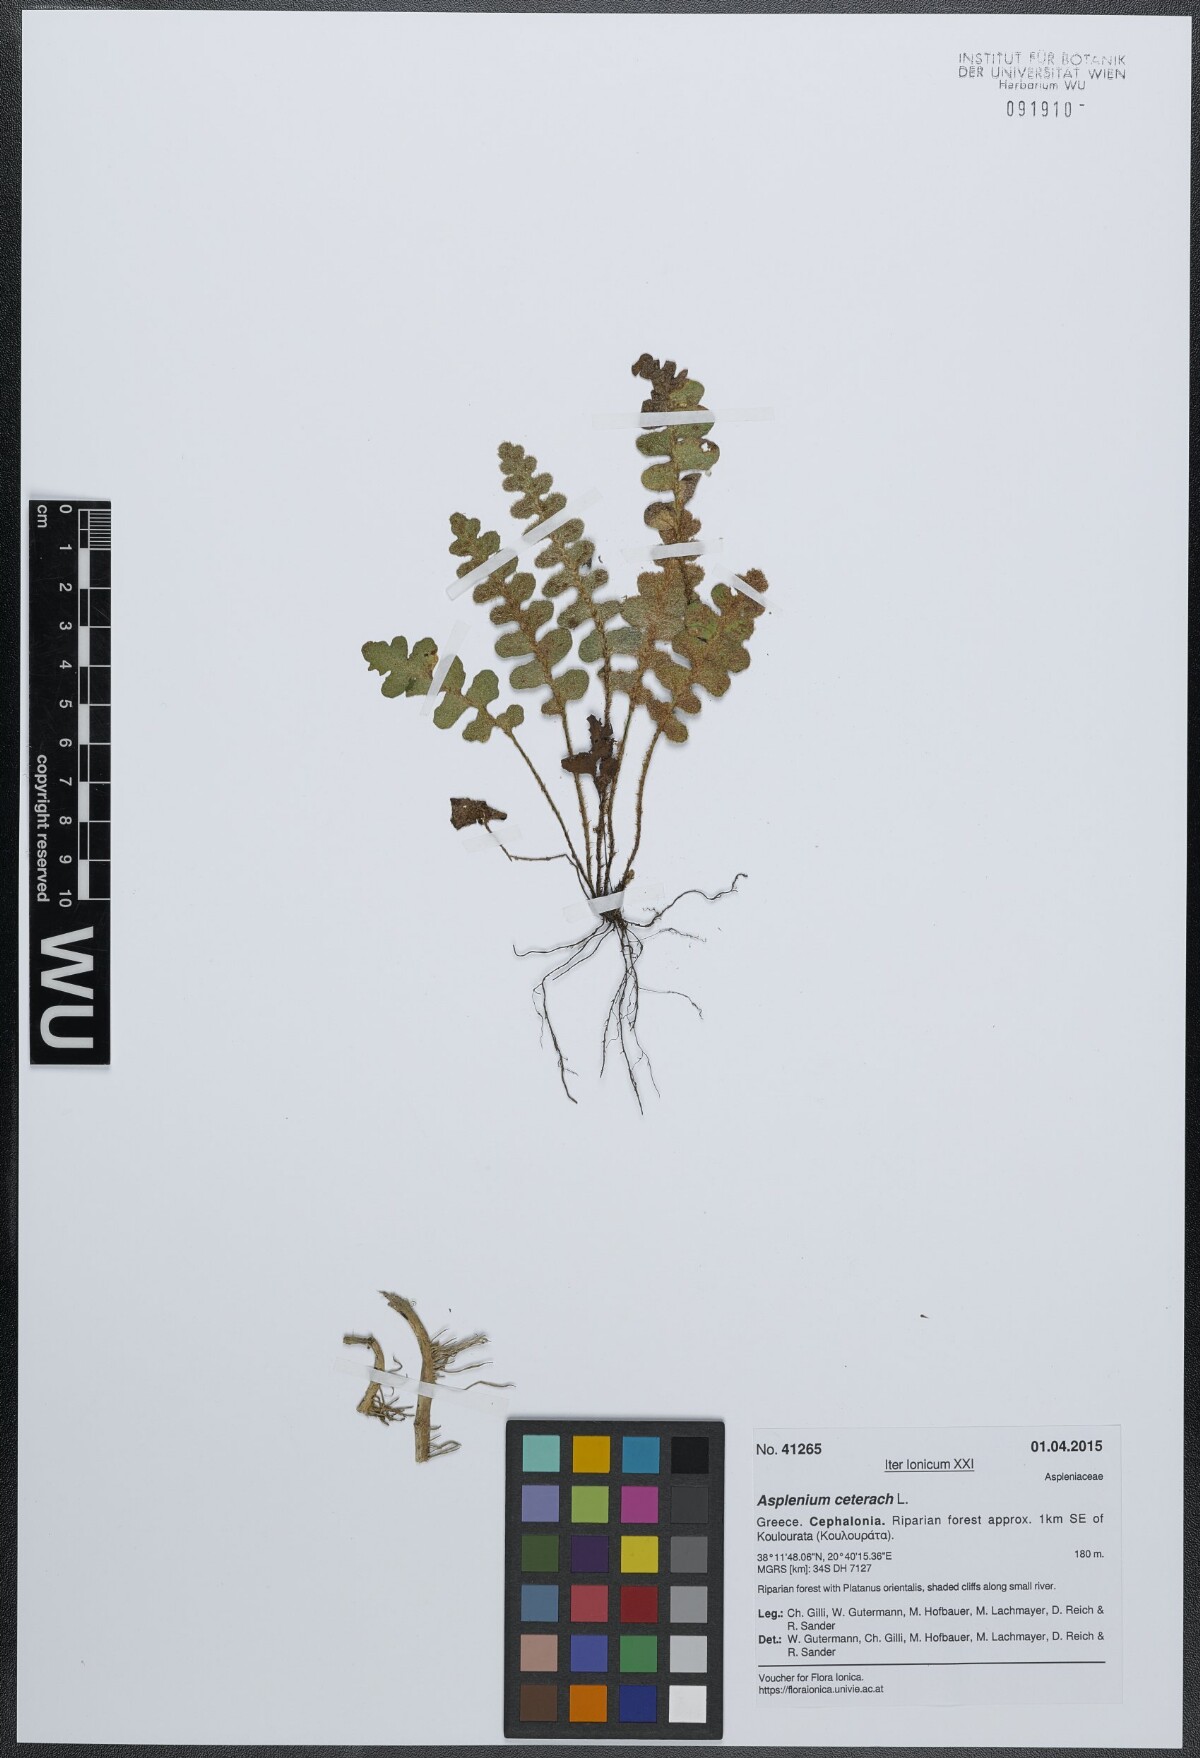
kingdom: Plantae
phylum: Tracheophyta
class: Polypodiopsida
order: Polypodiales
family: Aspleniaceae
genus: Asplenium
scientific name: Asplenium ceterach
